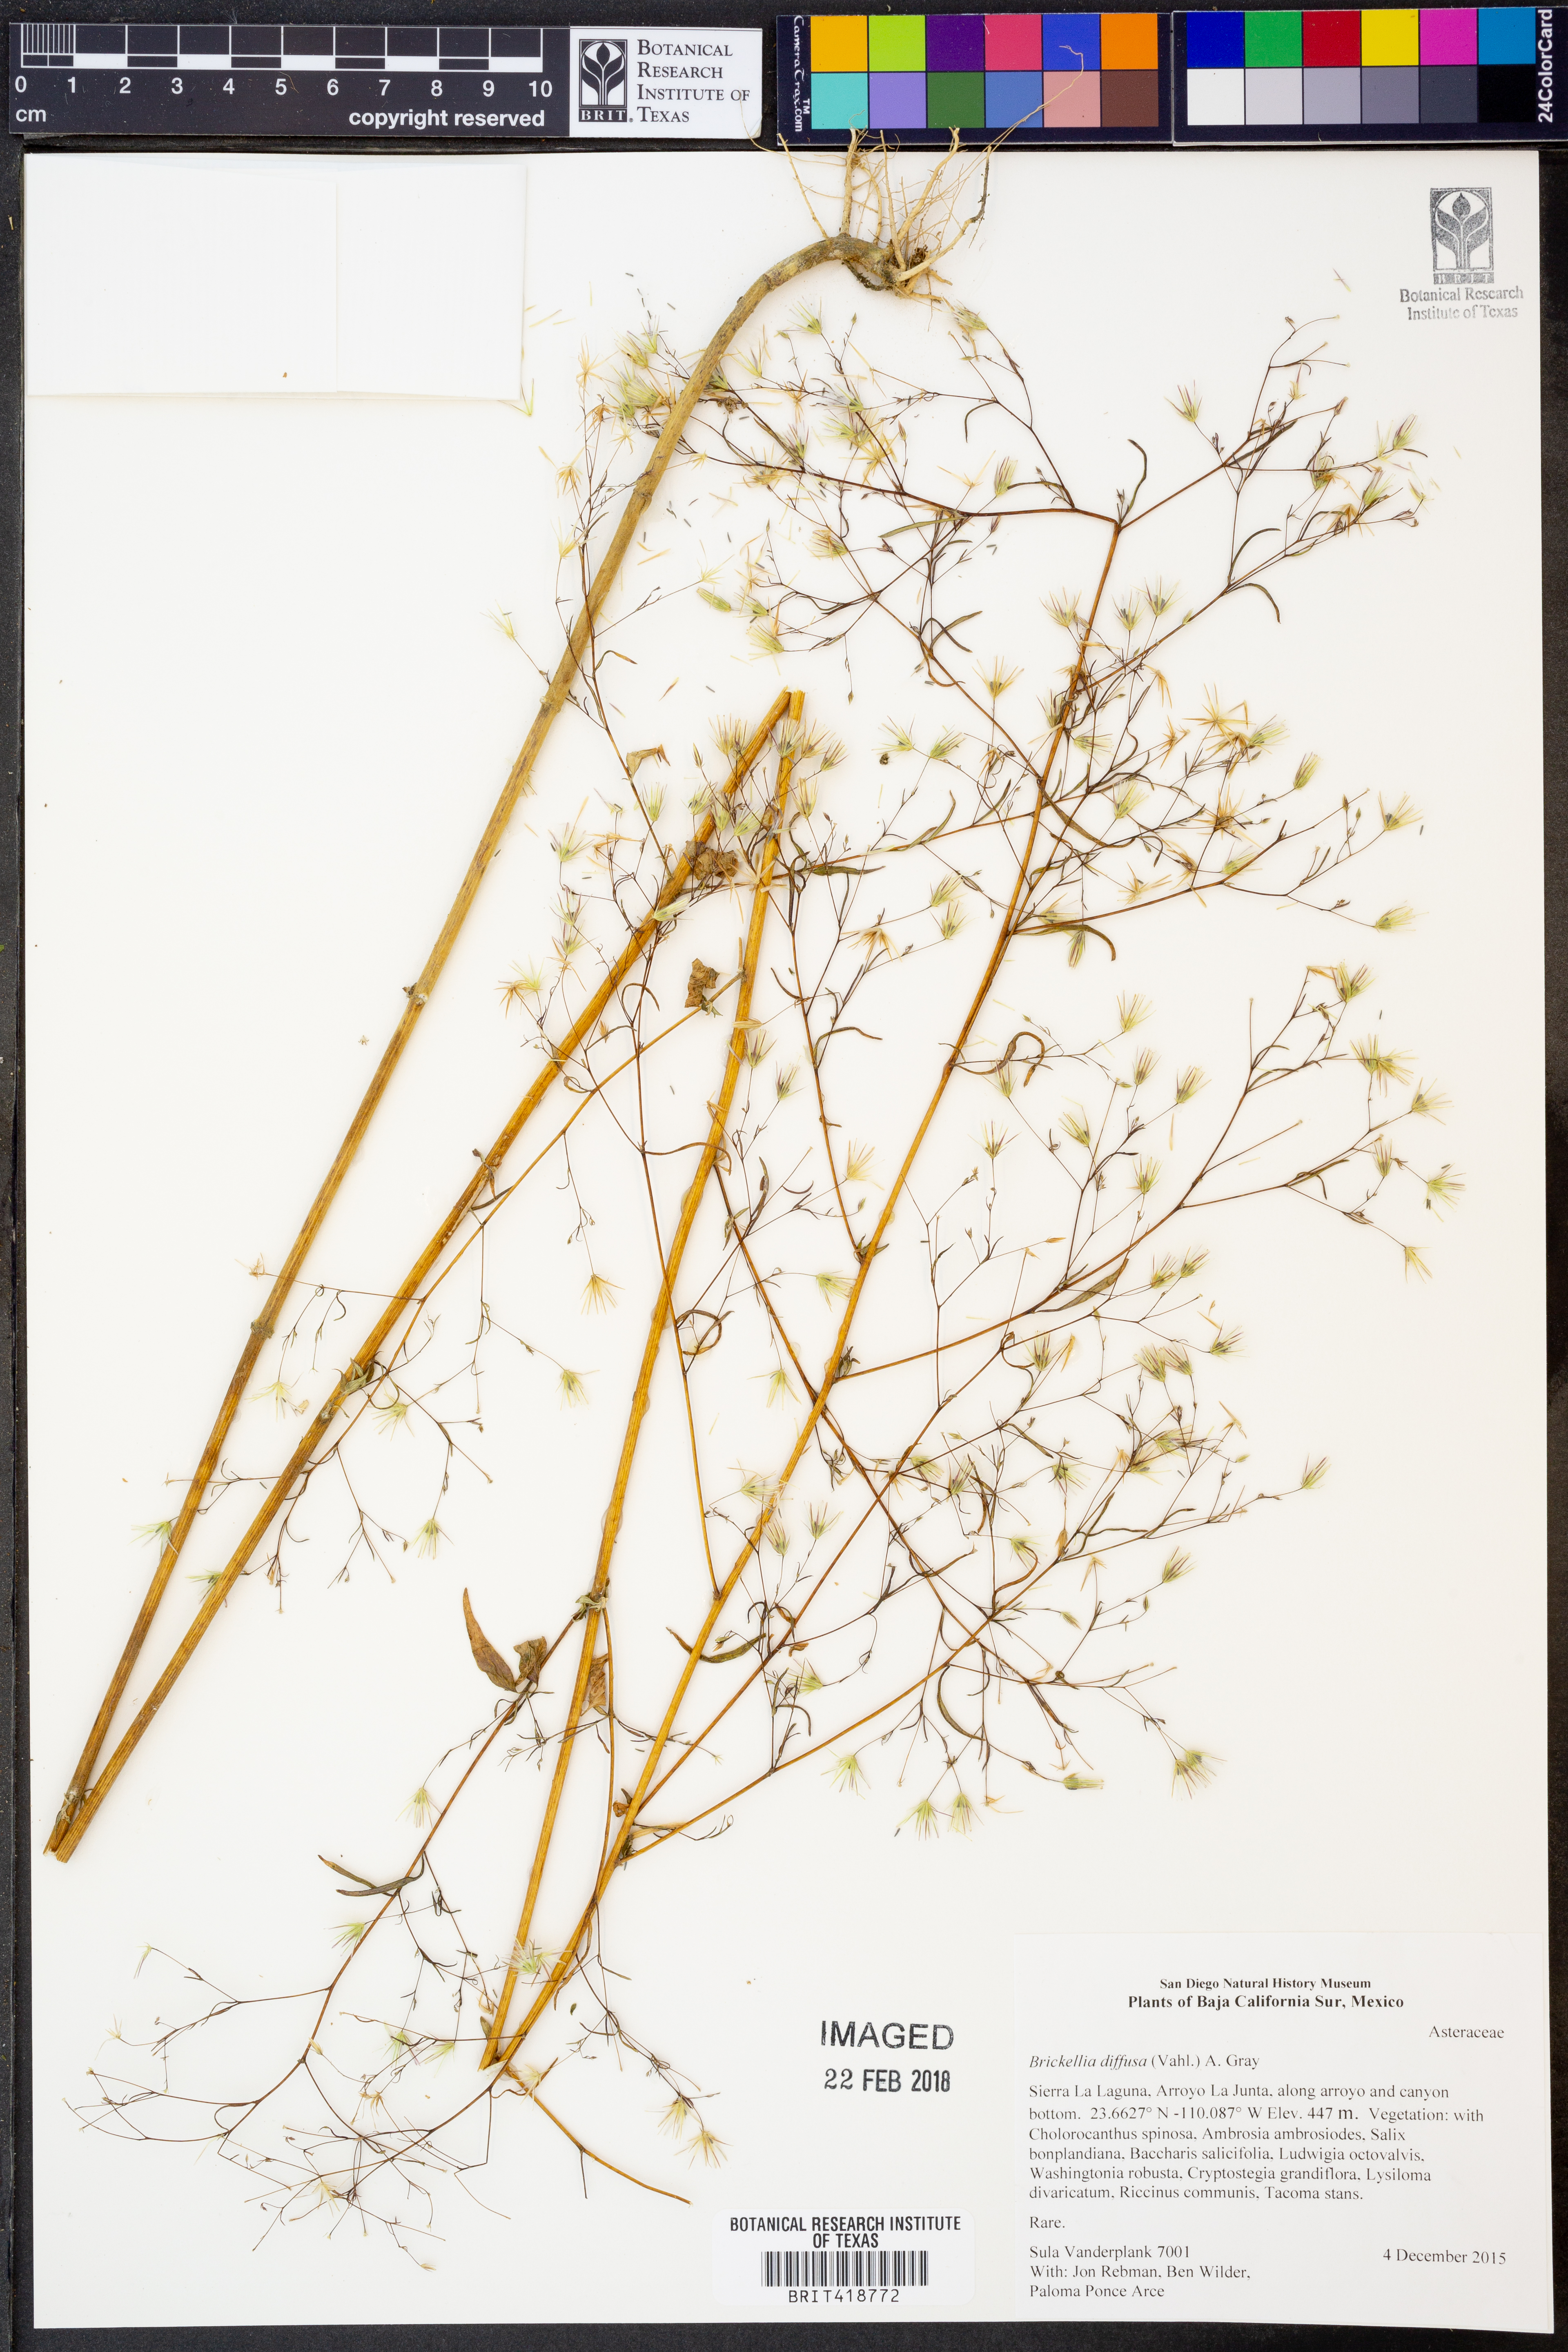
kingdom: Plantae
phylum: Tracheophyta
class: Magnoliopsida
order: Asterales
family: Asteraceae
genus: Brickellia
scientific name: Brickellia diffusa
